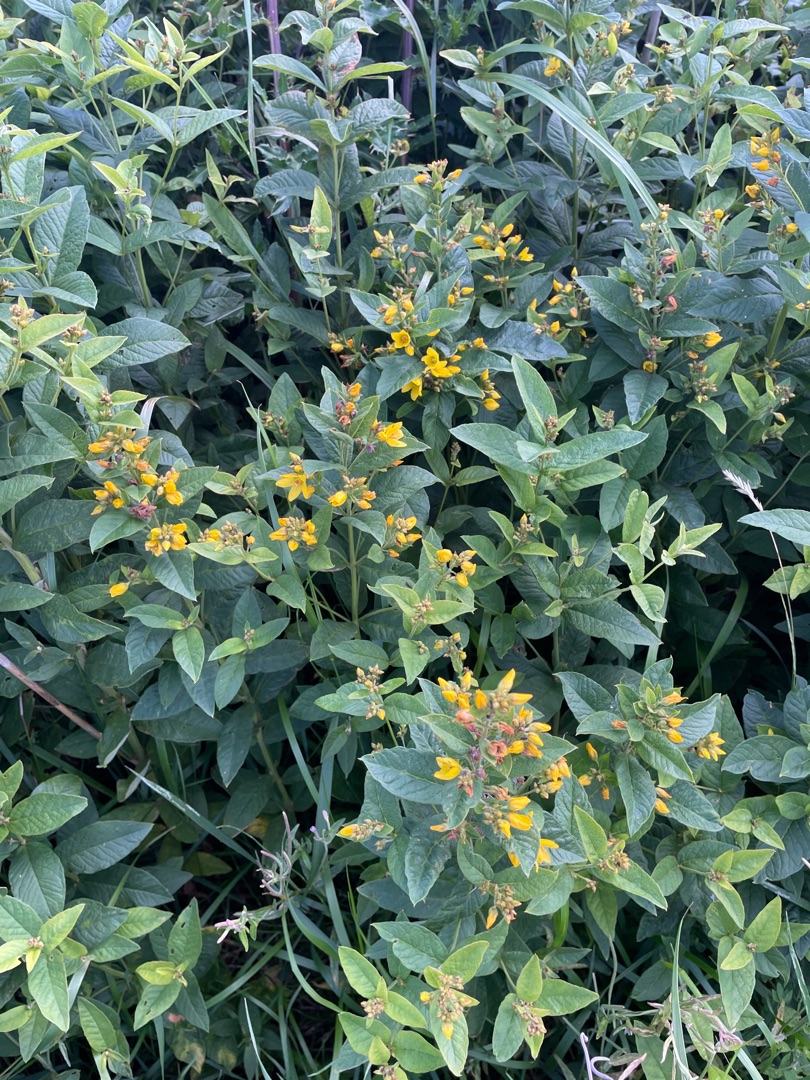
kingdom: Plantae
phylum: Tracheophyta
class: Magnoliopsida
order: Ericales
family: Primulaceae
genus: Lysimachia
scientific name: Lysimachia vulgaris
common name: Almindelig fredløs
